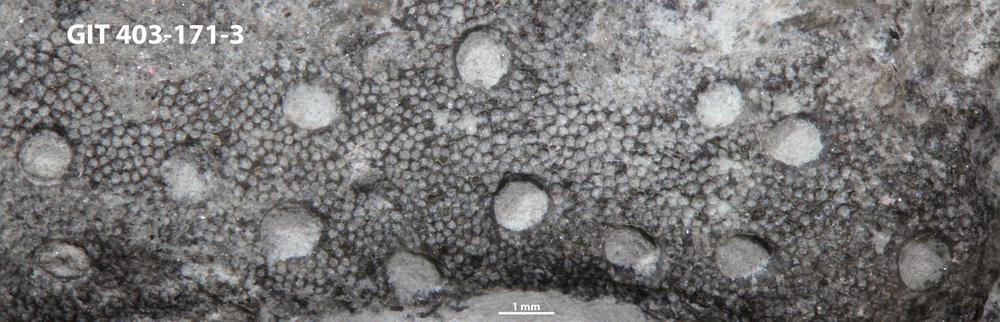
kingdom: Animalia
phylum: Cnidaria
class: Hydrozoa
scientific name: Hydrozoa
